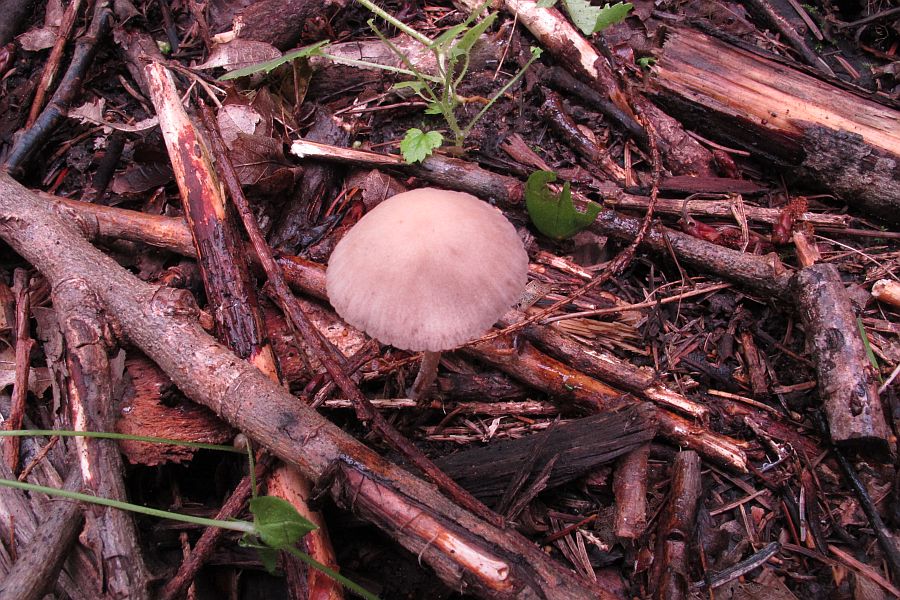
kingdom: Fungi
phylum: Basidiomycota
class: Agaricomycetes
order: Agaricales
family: Psathyrellaceae
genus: Psathyrella
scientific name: Psathyrella obtusata
